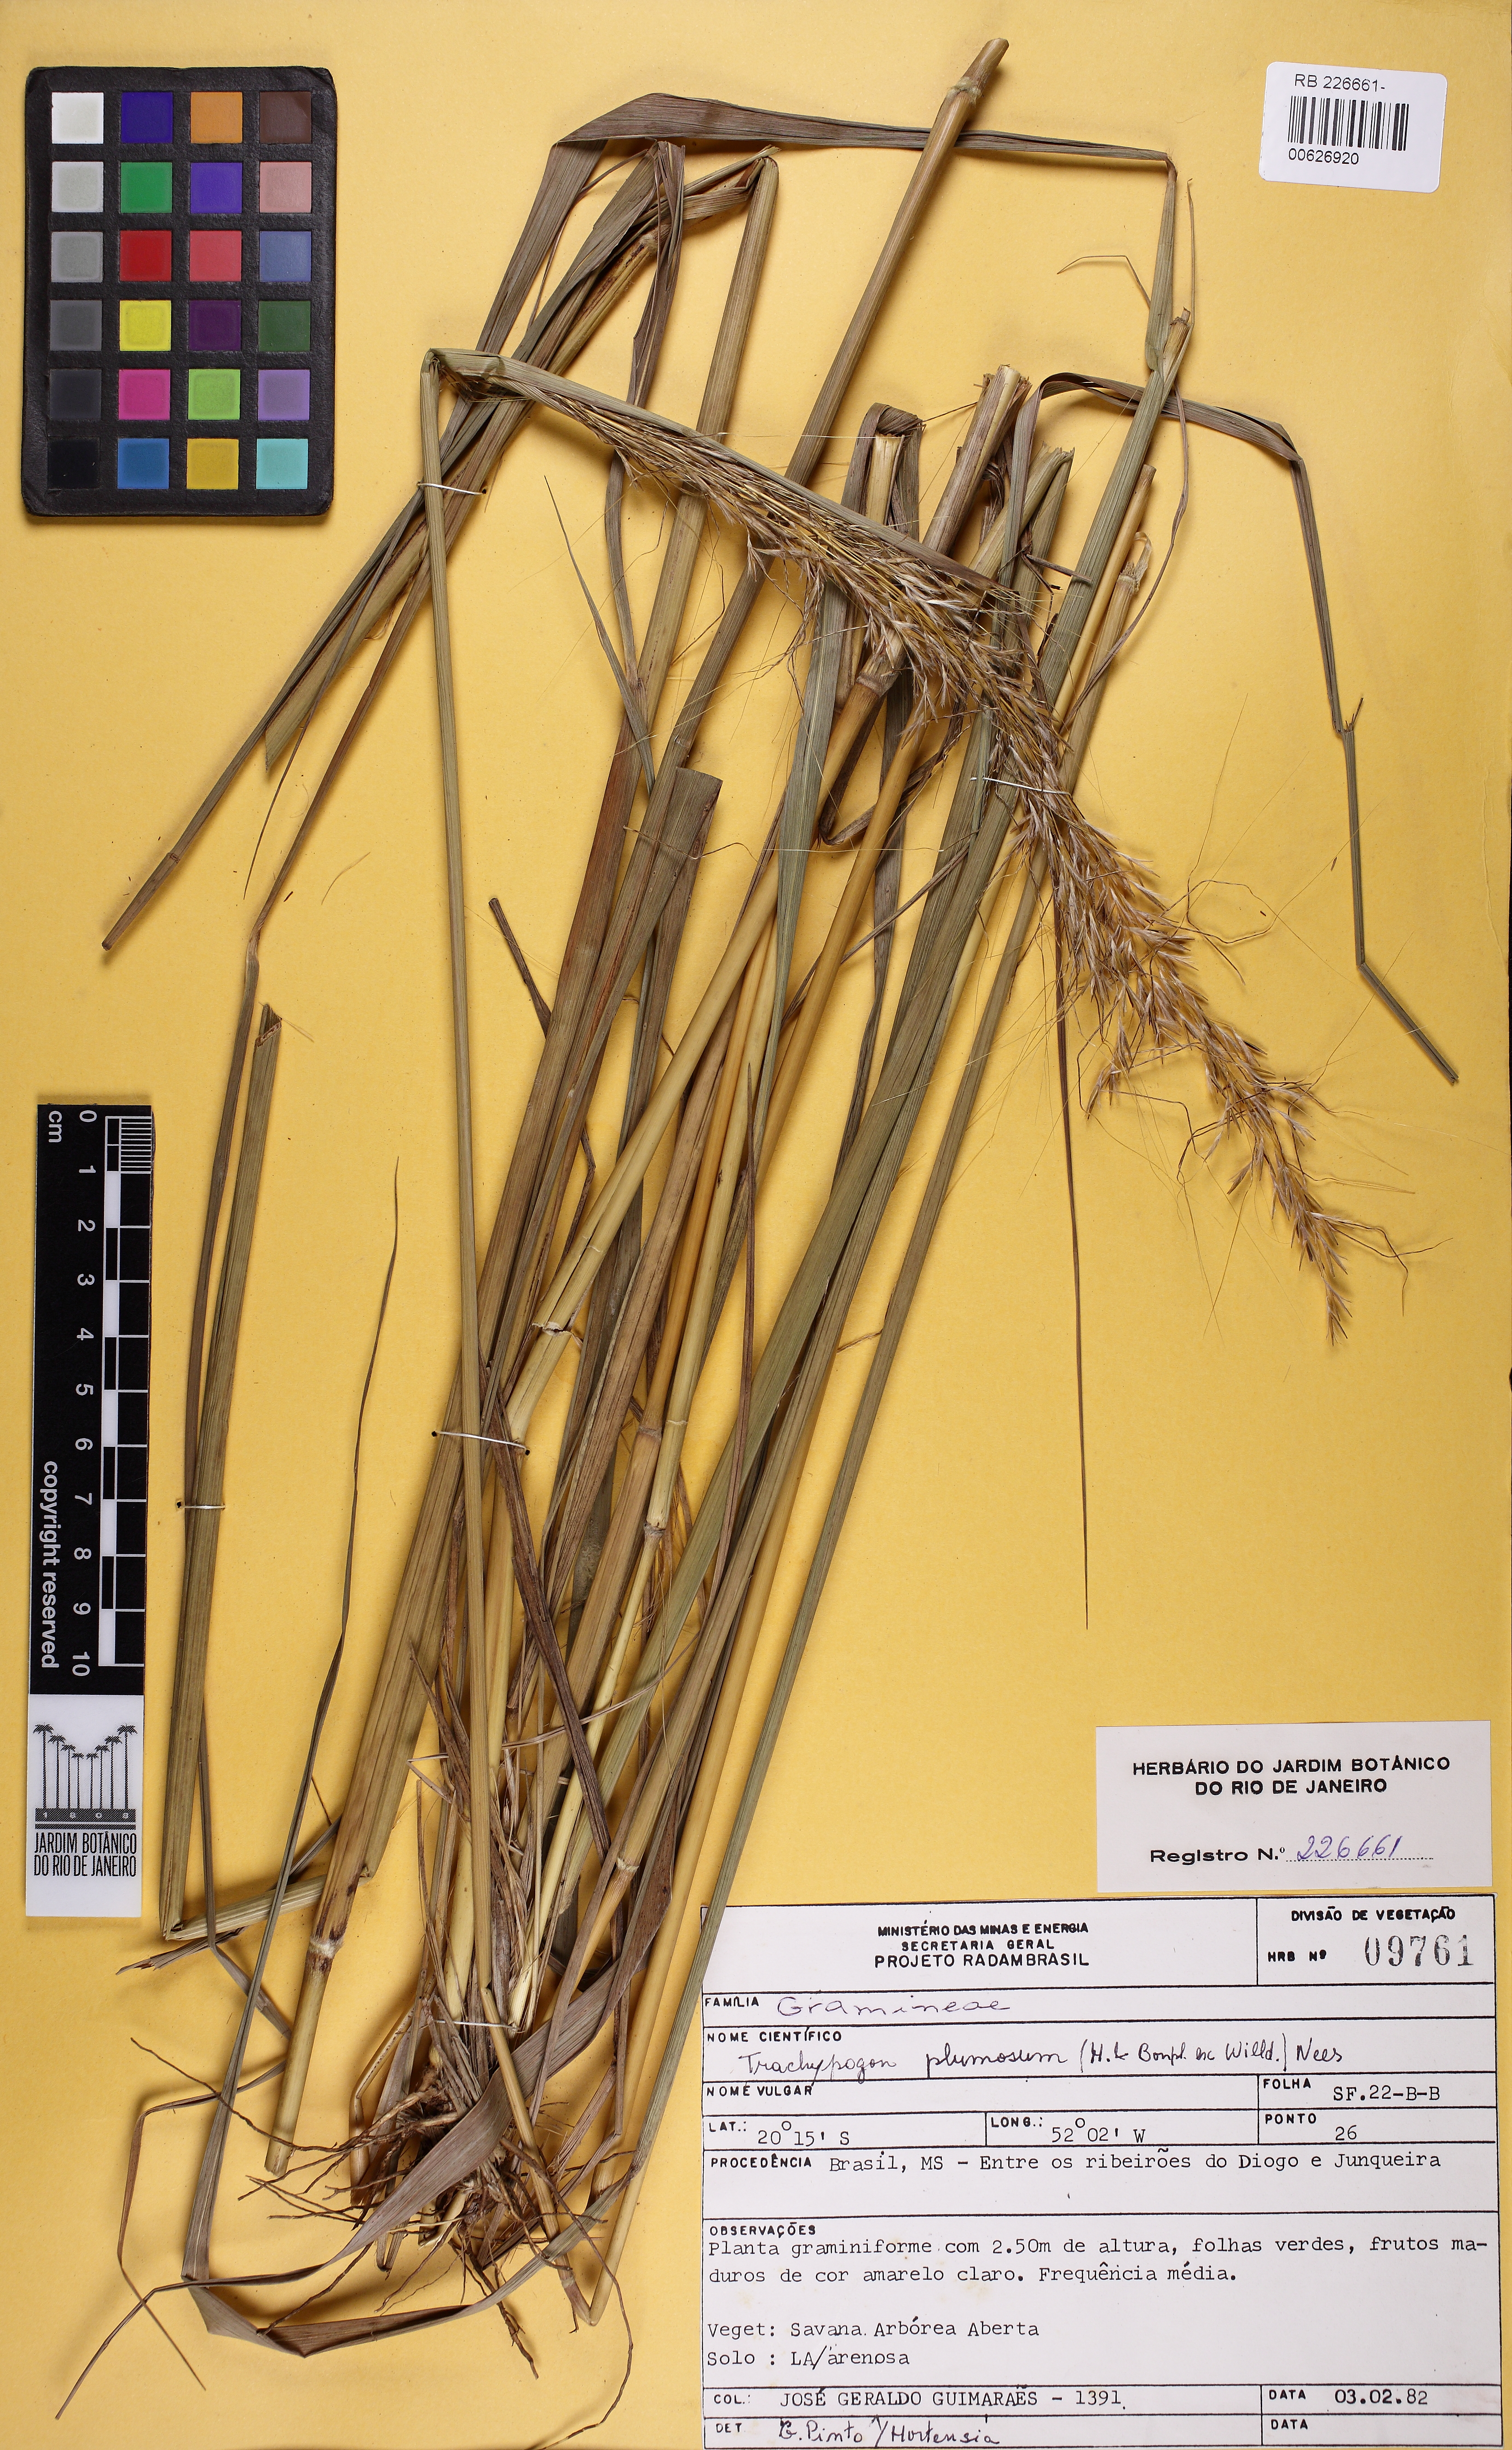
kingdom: Plantae
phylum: Tracheophyta
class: Liliopsida
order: Poales
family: Poaceae
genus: Trachypogon
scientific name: Trachypogon spicatus
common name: Crinkle-awn
